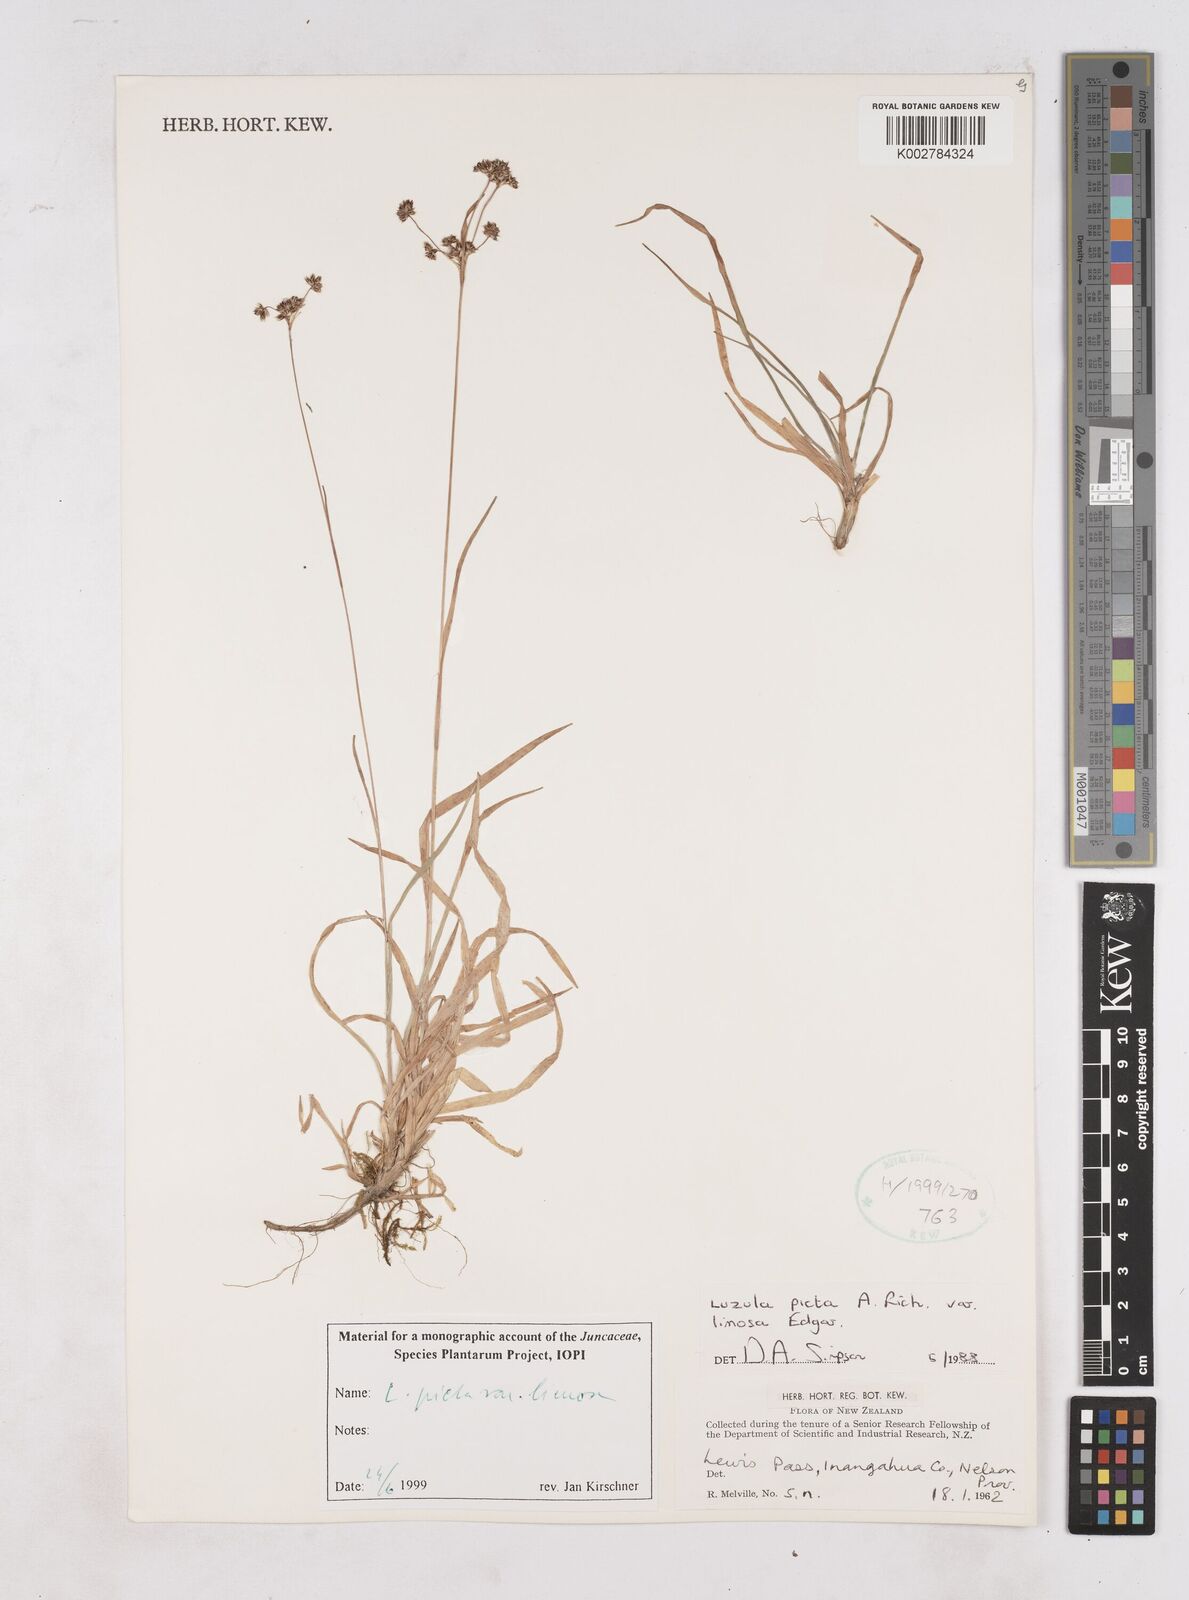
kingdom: Plantae
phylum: Tracheophyta
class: Liliopsida
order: Poales
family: Juncaceae
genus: Luzula
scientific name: Luzula picta
